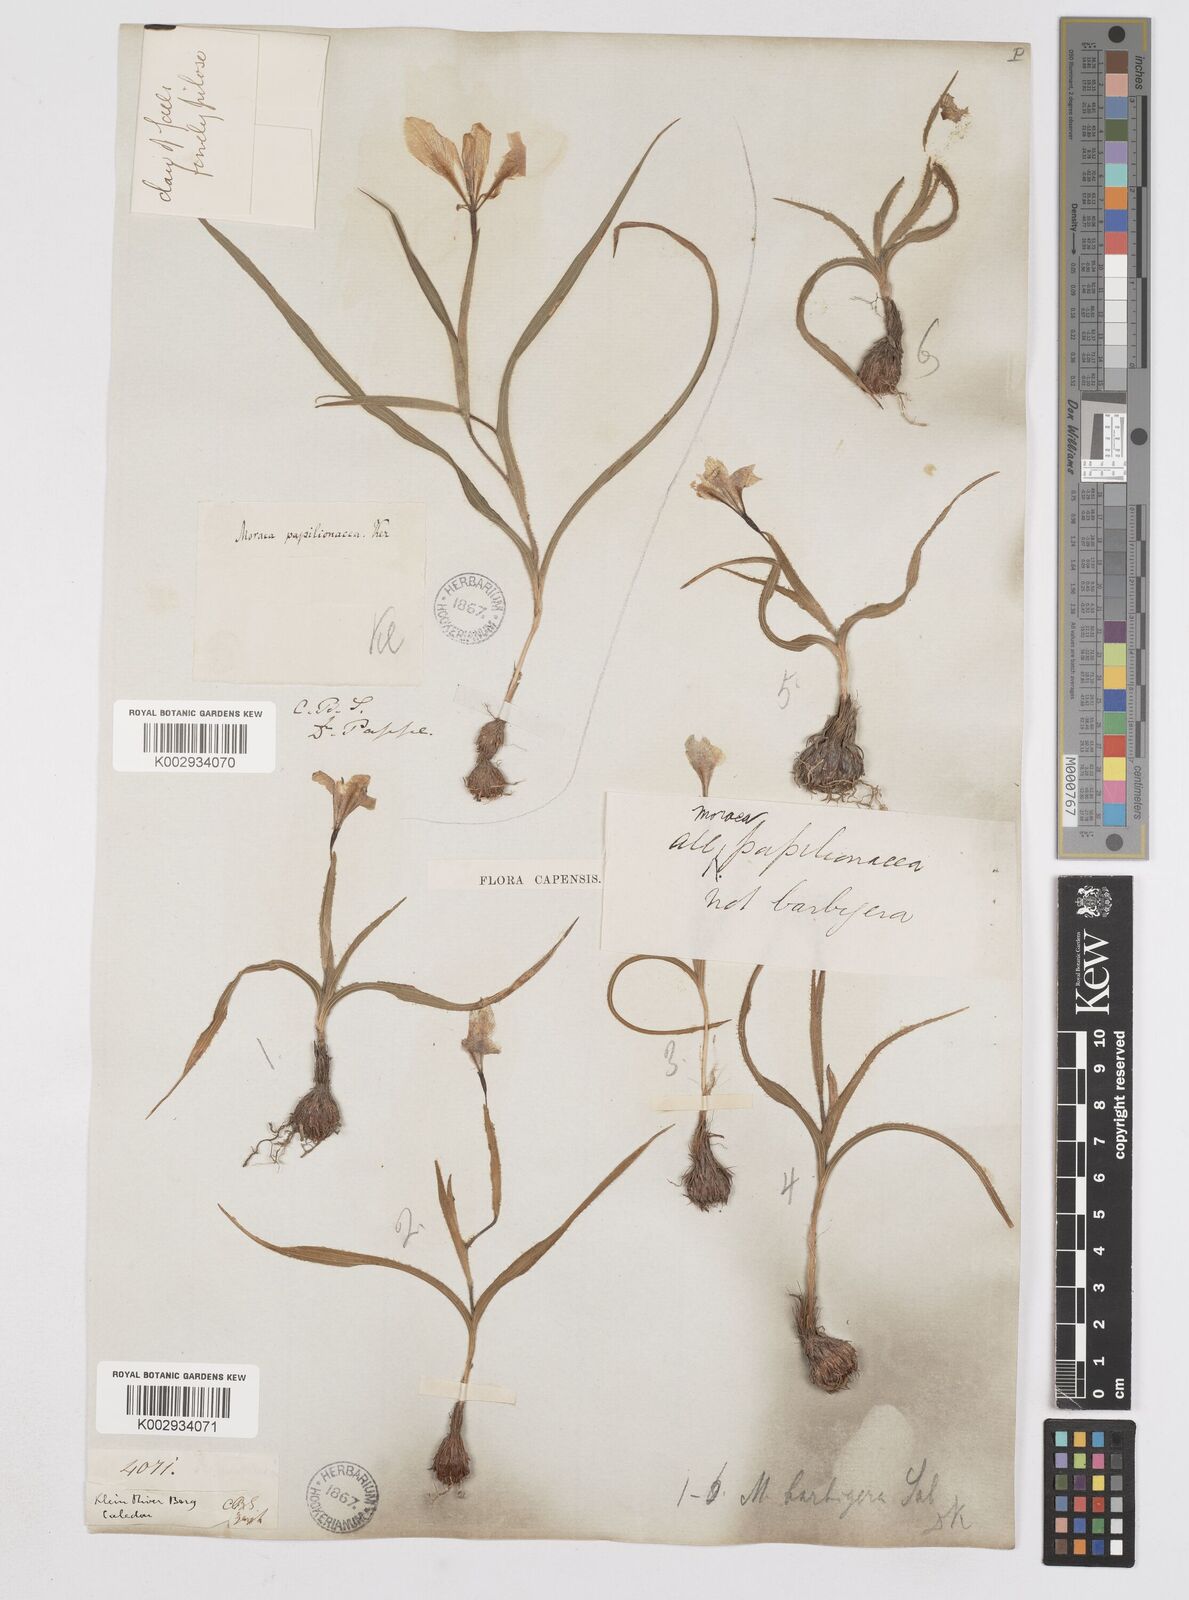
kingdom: Plantae
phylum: Tracheophyta
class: Liliopsida
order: Asparagales
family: Iridaceae
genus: Moraea
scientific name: Moraea papilionacea
